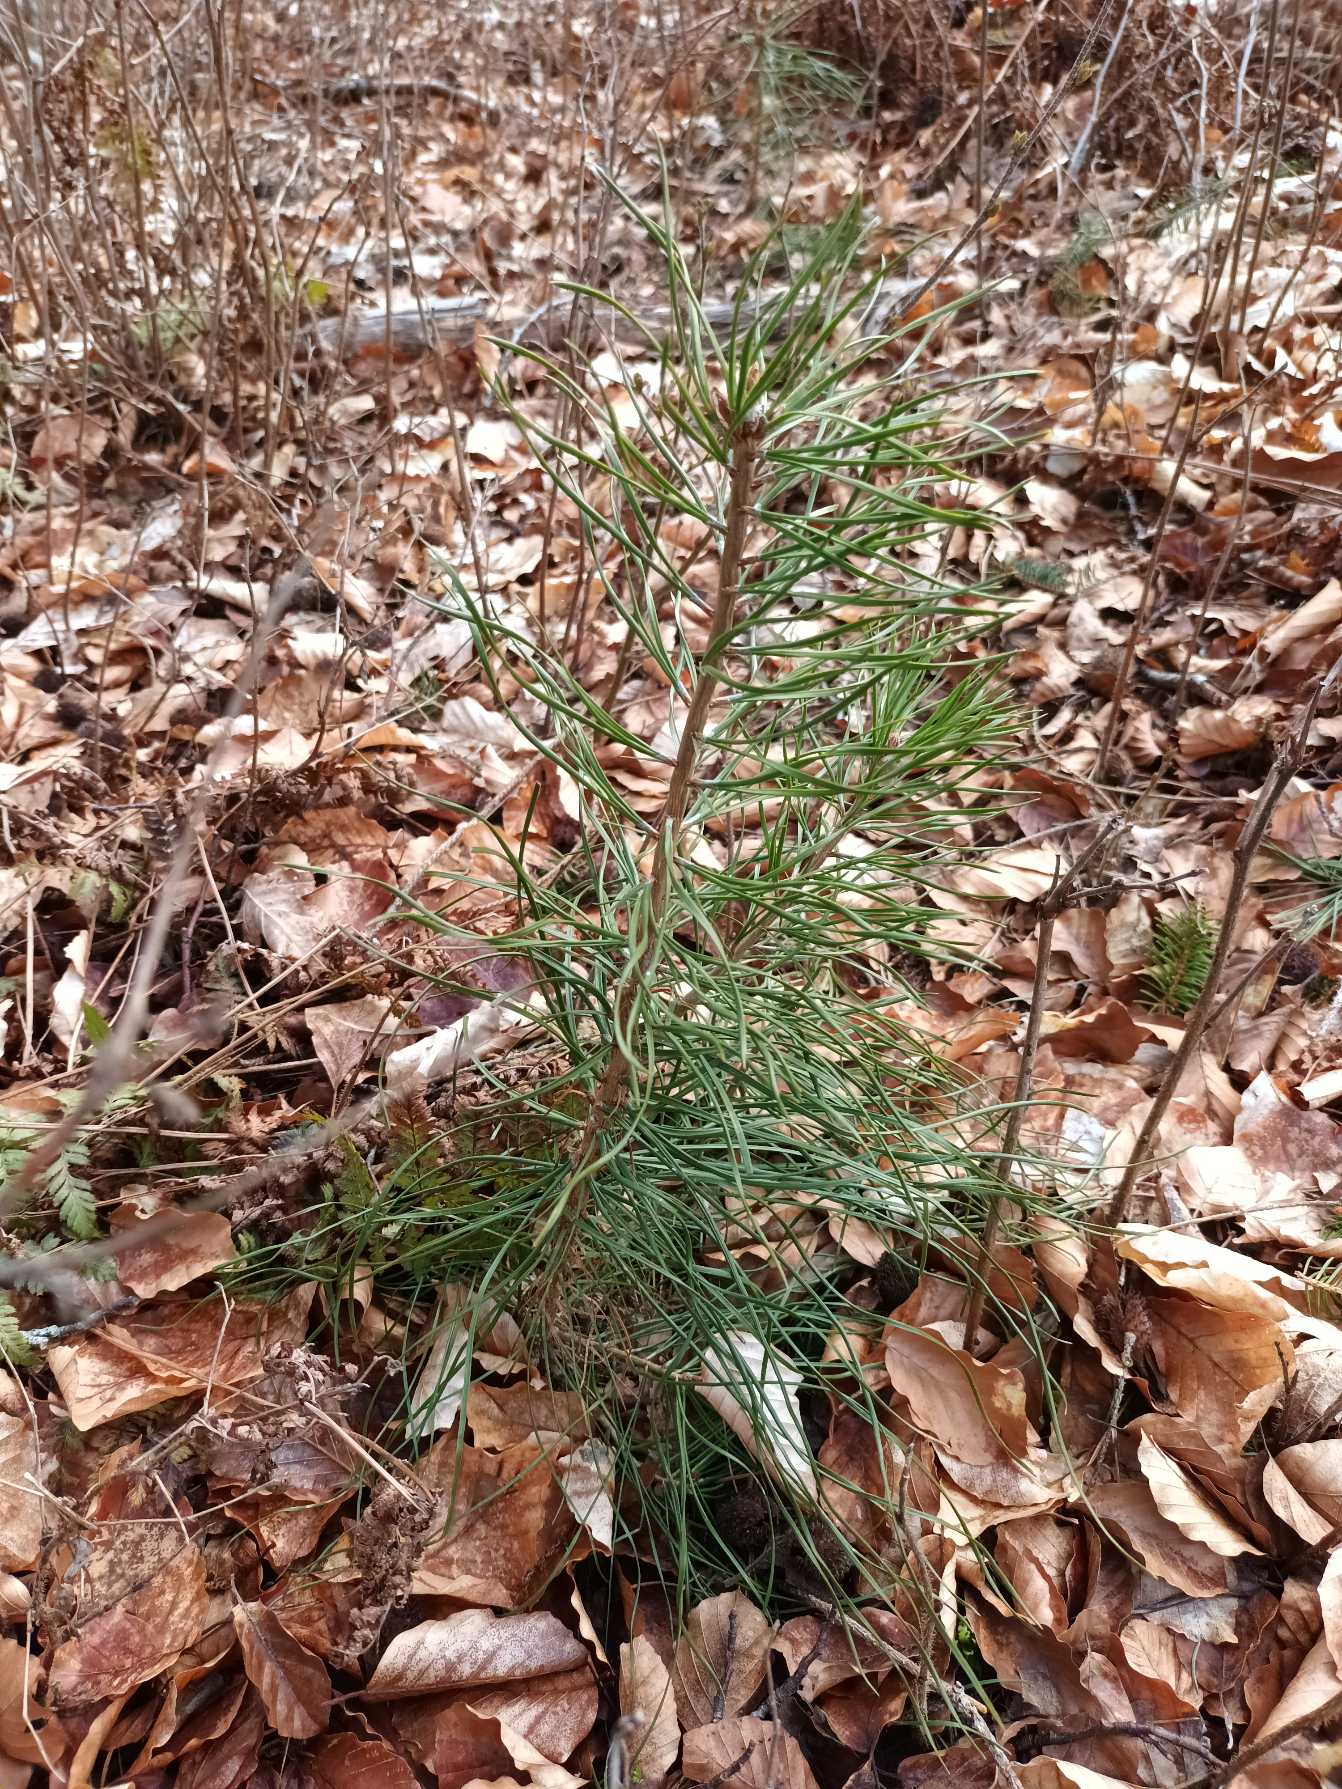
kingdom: Plantae
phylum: Tracheophyta
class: Pinopsida
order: Pinales
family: Pinaceae
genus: Pinus
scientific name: Pinus sylvestris
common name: Skov-fyr
